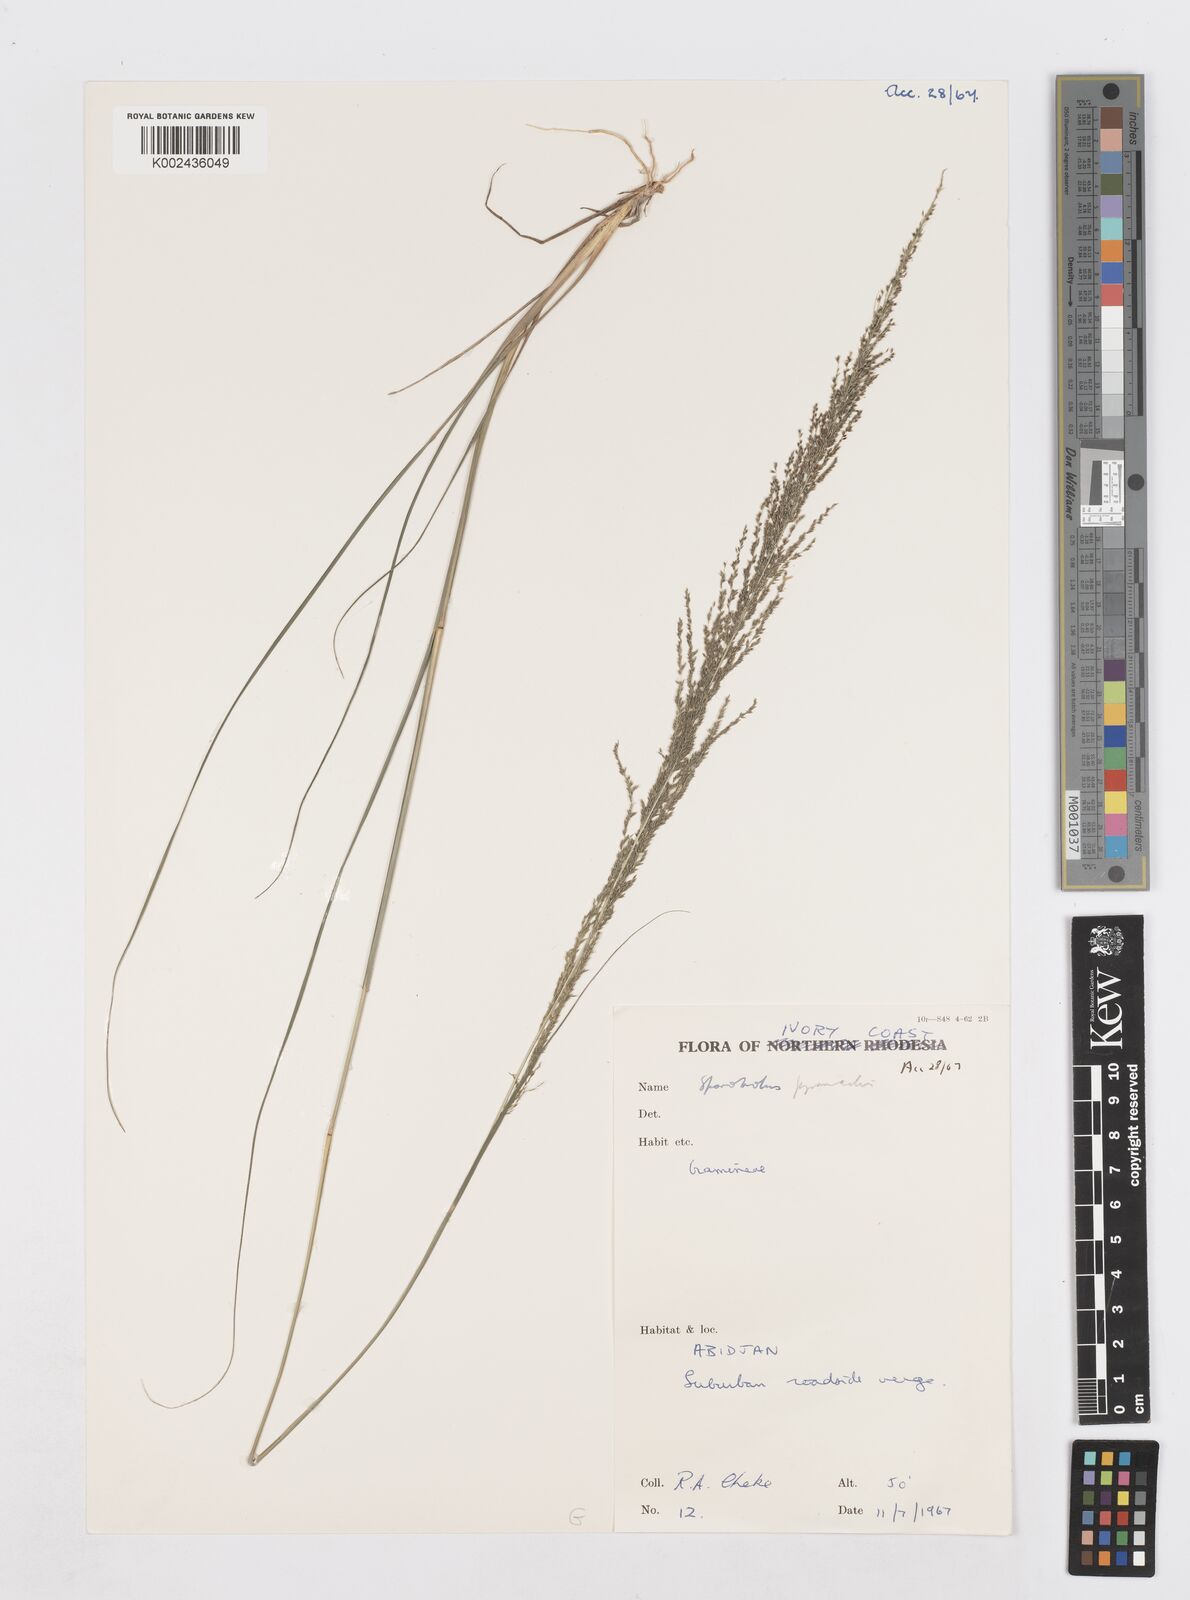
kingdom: Plantae
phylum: Tracheophyta
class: Liliopsida
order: Poales
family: Poaceae
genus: Sporobolus
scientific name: Sporobolus pyramidalis
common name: West indian dropseed
